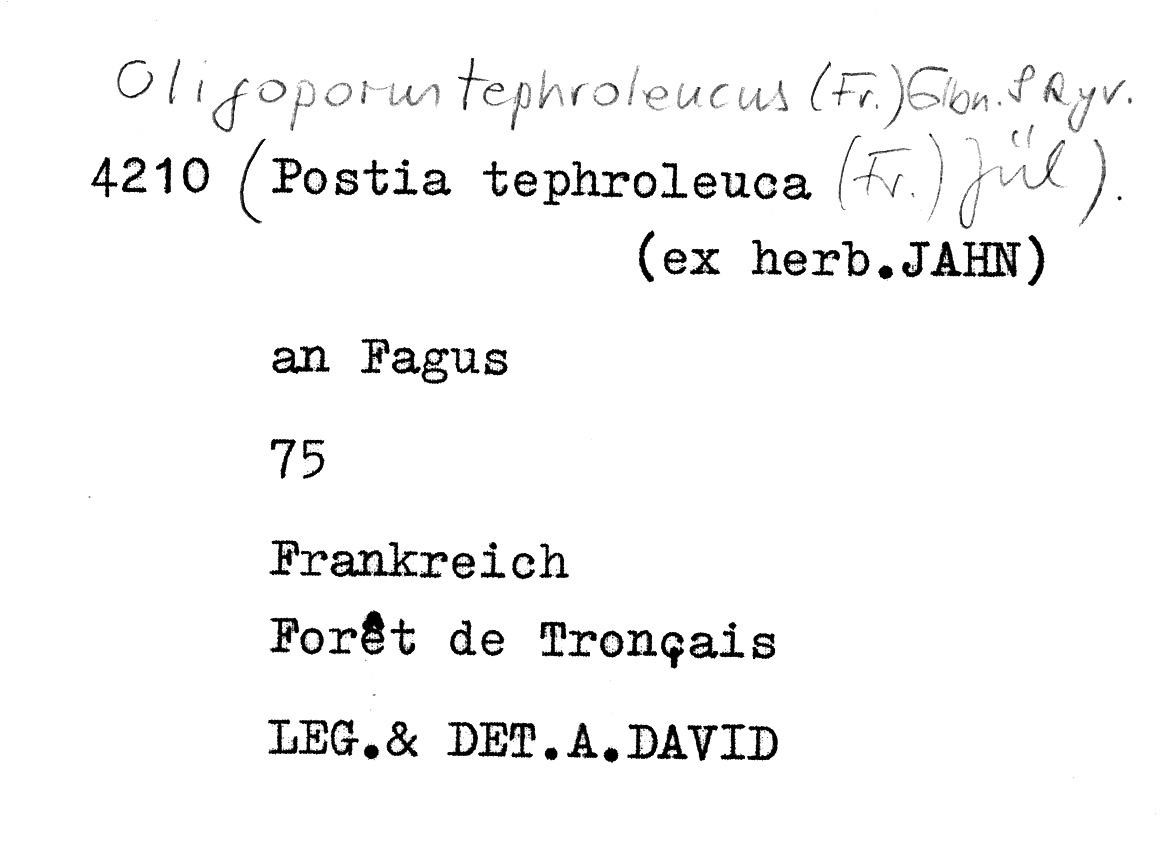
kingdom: Plantae
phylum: Tracheophyta
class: Magnoliopsida
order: Fagales
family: Fagaceae
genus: Fagus
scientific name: Fagus sylvatica
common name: Beech
